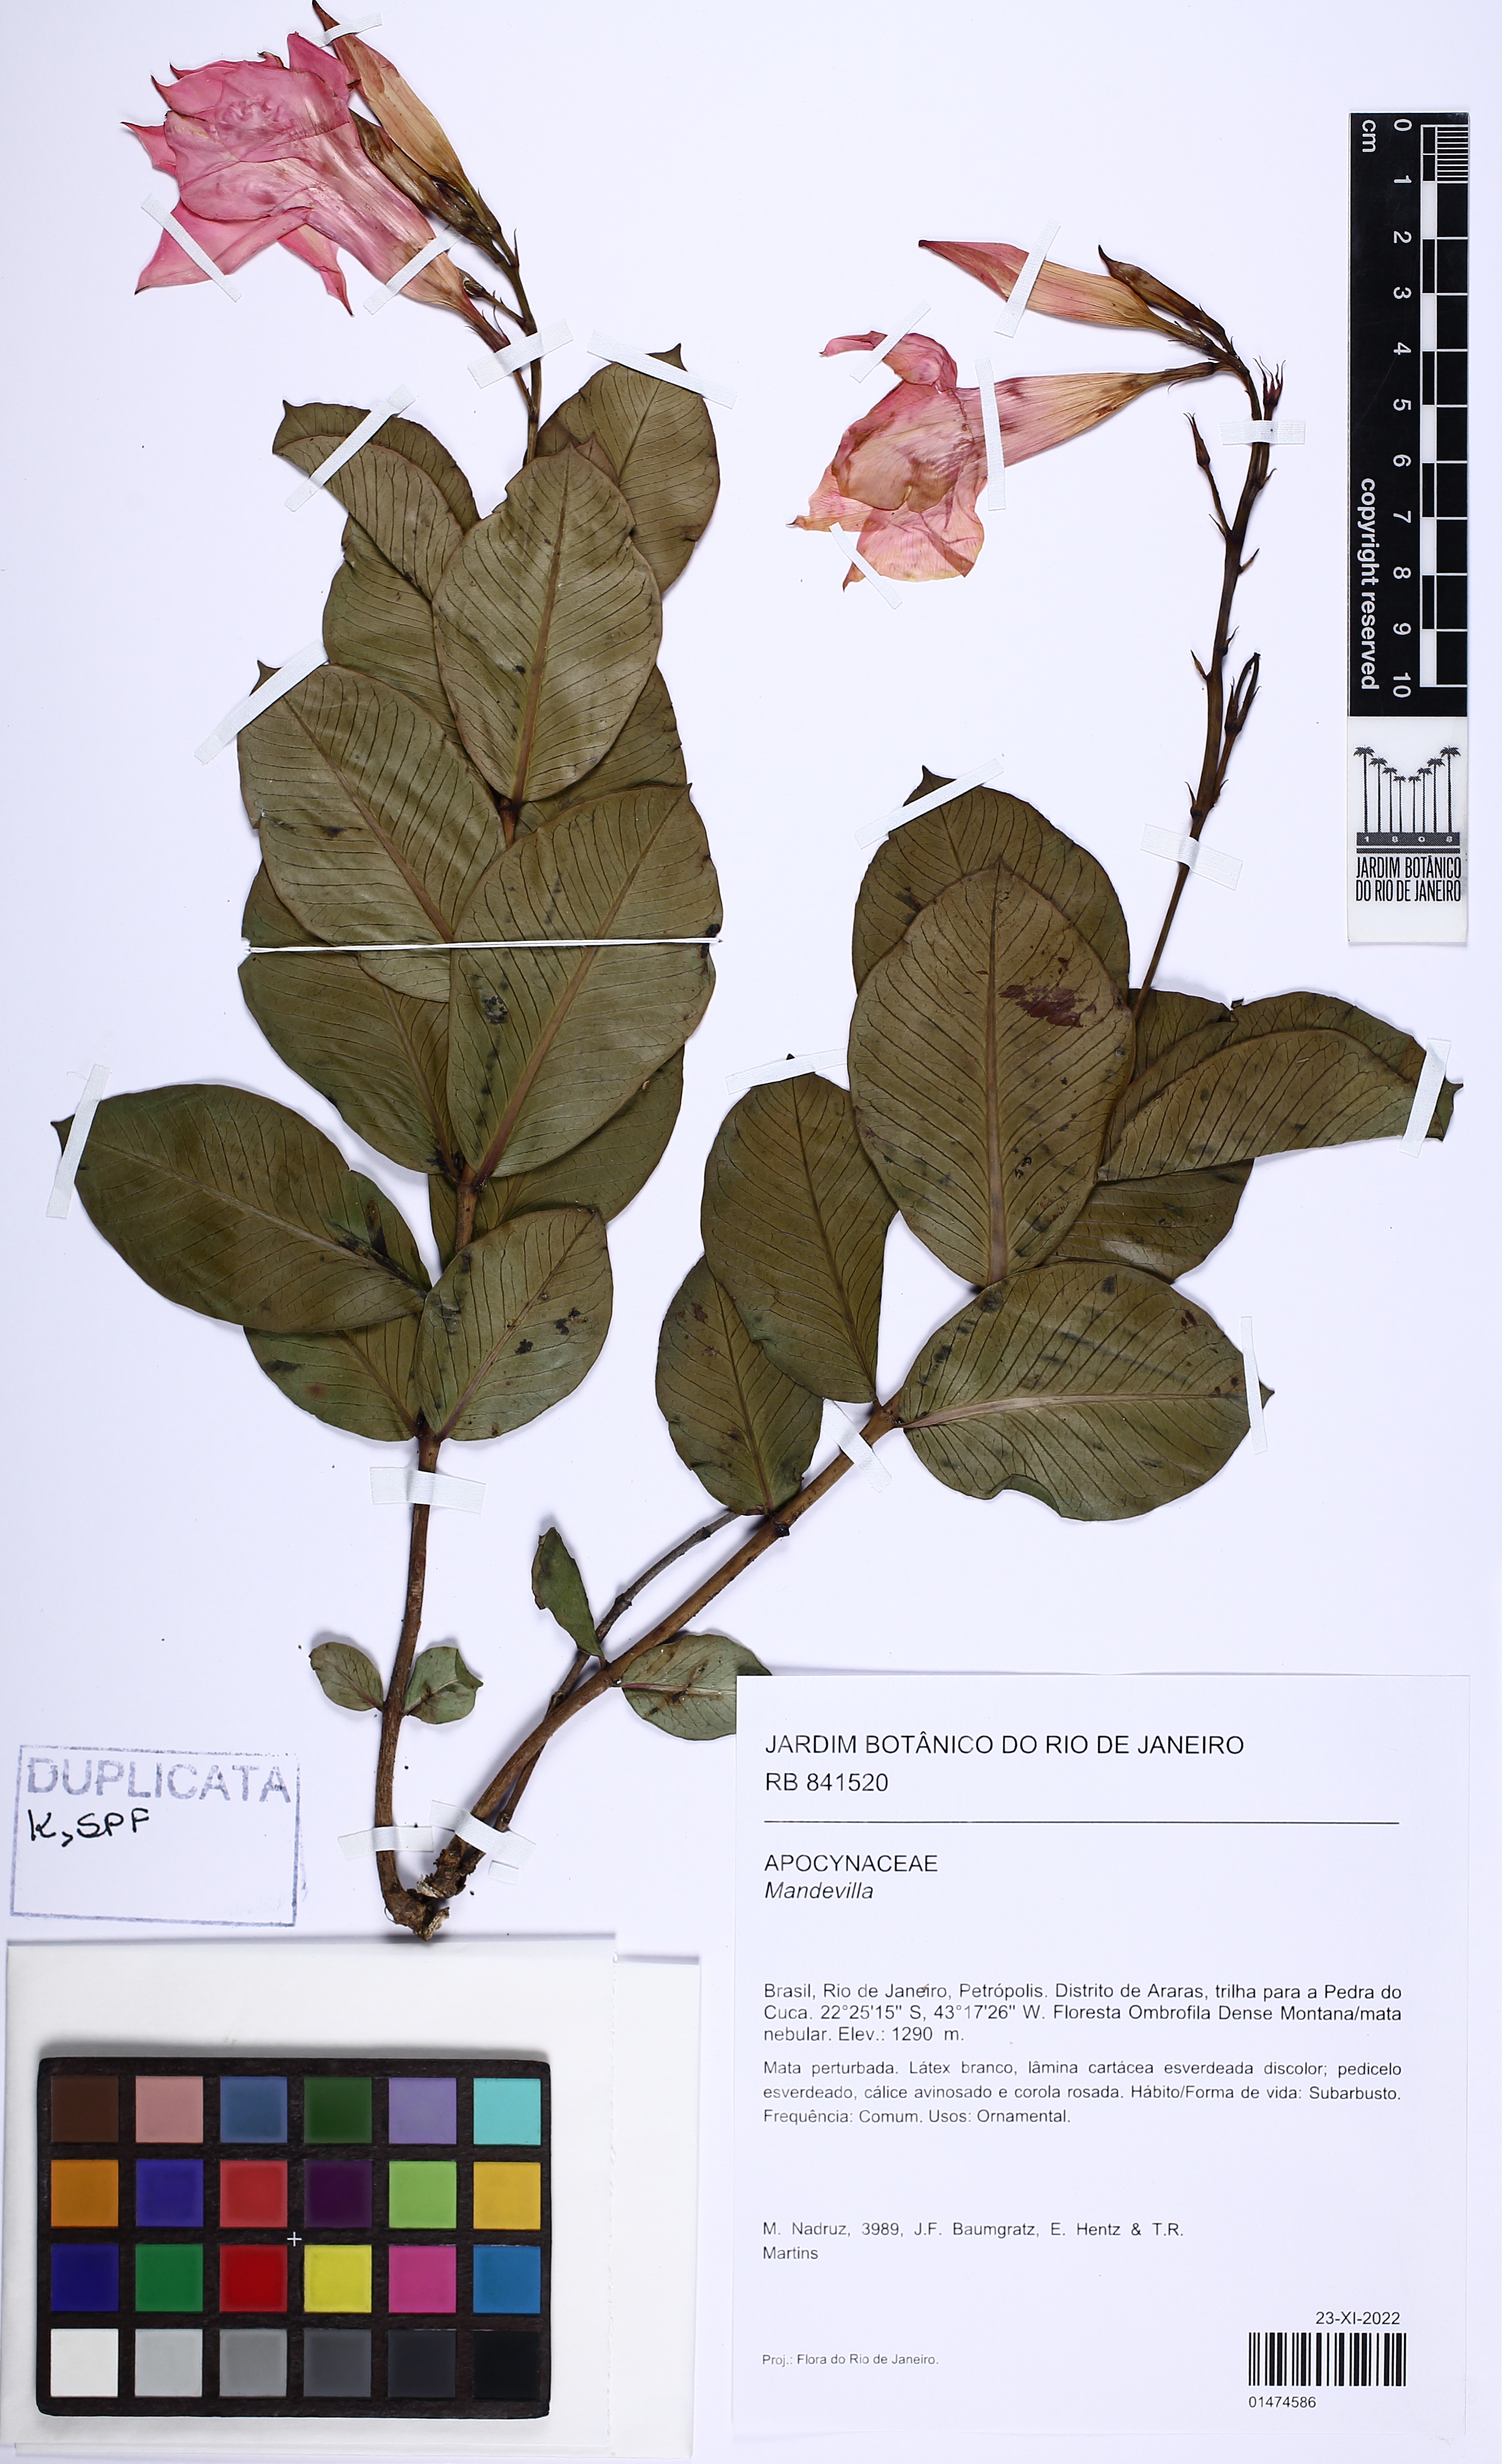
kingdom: Plantae
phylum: Tracheophyta
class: Magnoliopsida
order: Gentianales
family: Apocynaceae
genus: Mandevilla
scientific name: Mandevilla pohliana
